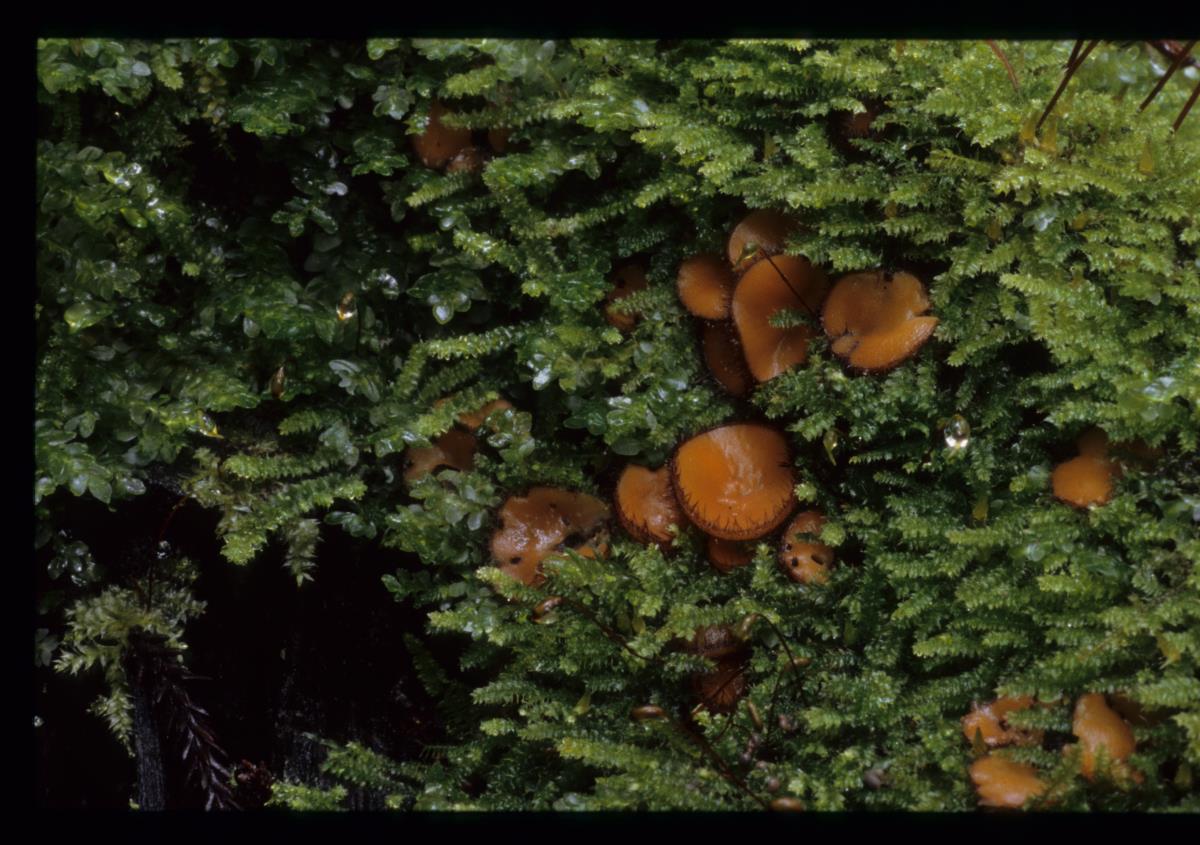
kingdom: Fungi
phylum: Ascomycota
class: Pezizomycetes
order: Pezizales
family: Pyronemataceae
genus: Scutellinia
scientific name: Scutellinia colensoi
